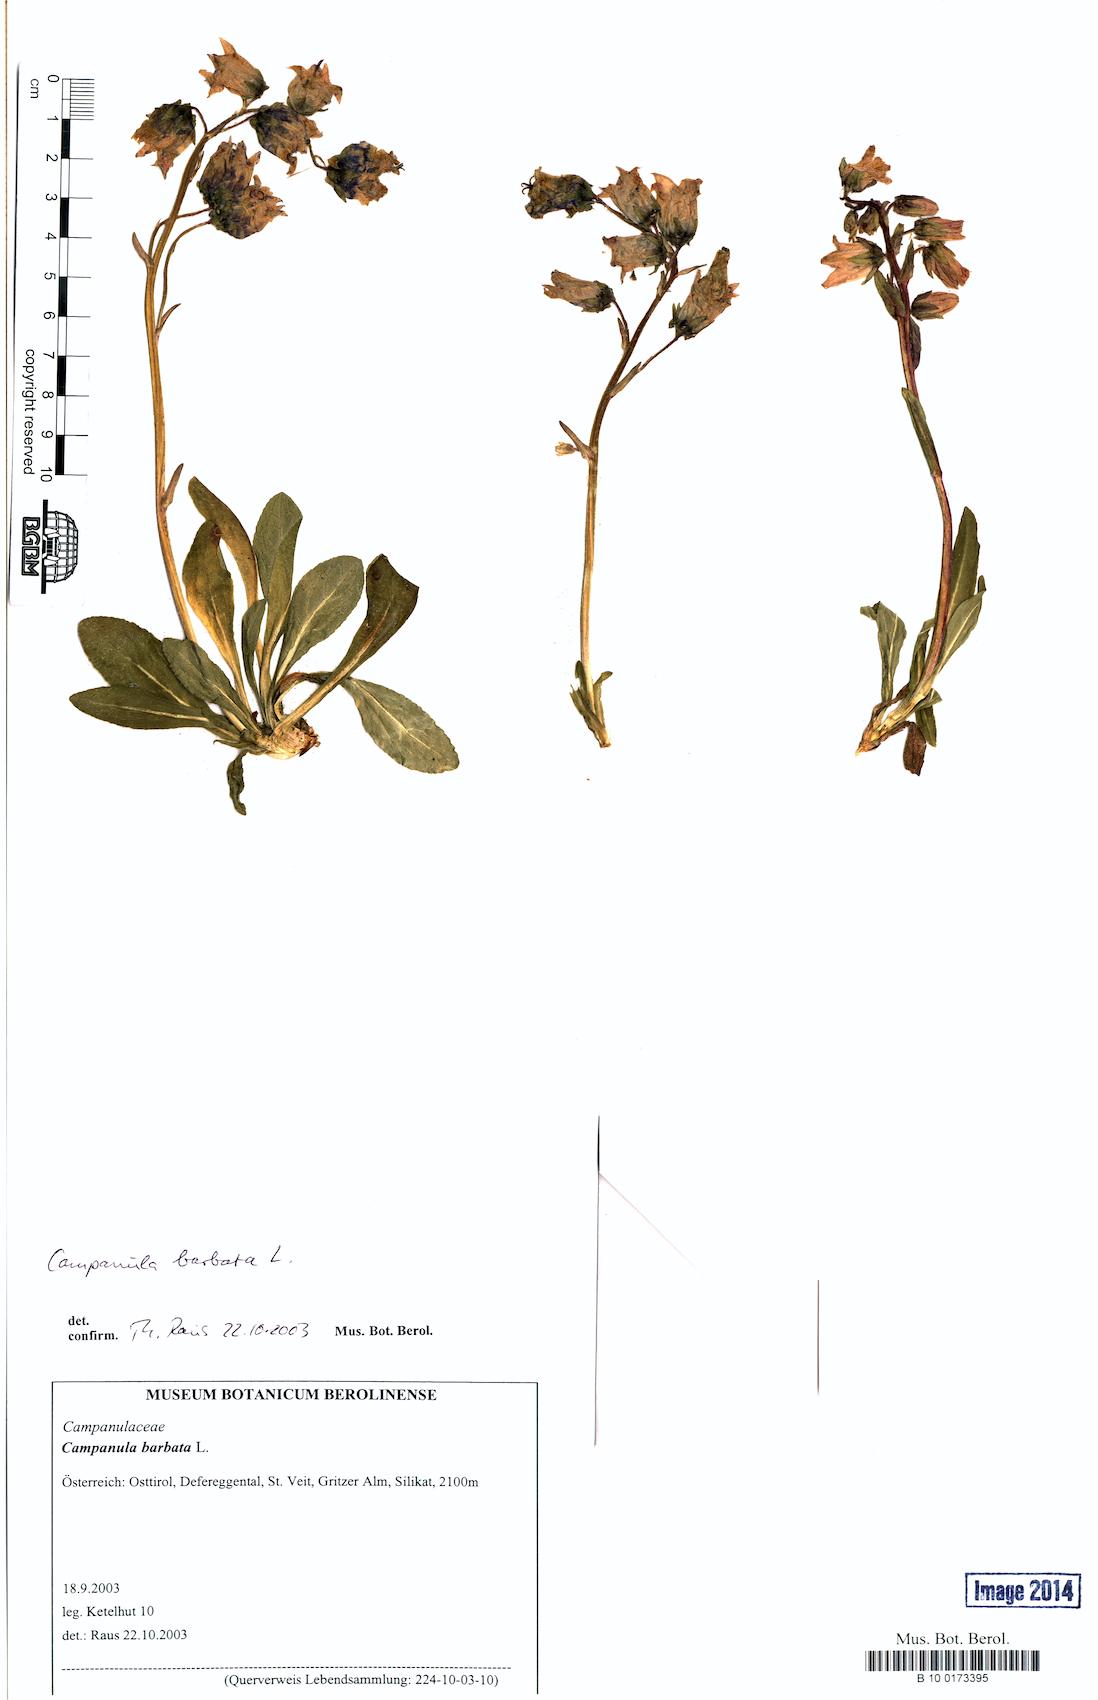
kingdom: Plantae
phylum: Tracheophyta
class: Magnoliopsida
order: Asterales
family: Campanulaceae
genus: Campanula
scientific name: Campanula barbata
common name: Bearded bellflower
